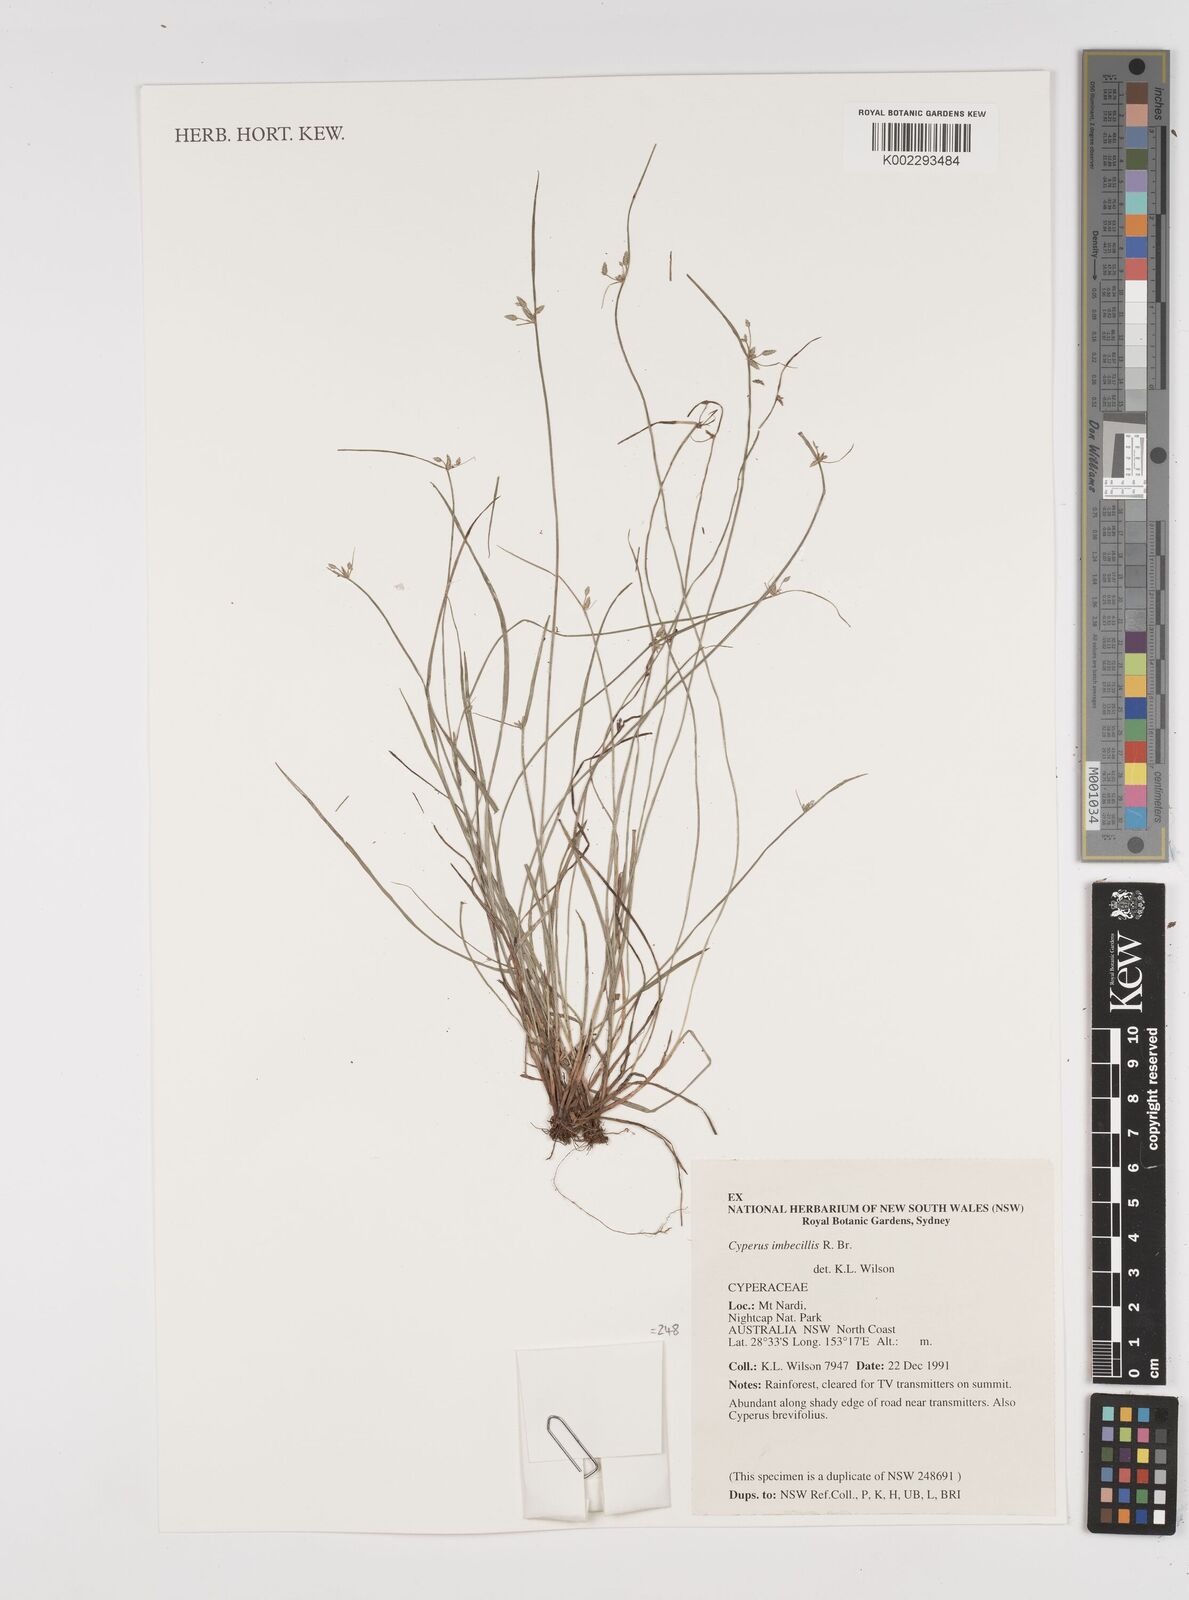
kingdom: Plantae
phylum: Tracheophyta
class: Liliopsida
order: Poales
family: Cyperaceae
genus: Cyperus
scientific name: Cyperus trinervis
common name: Australian flatsedge
